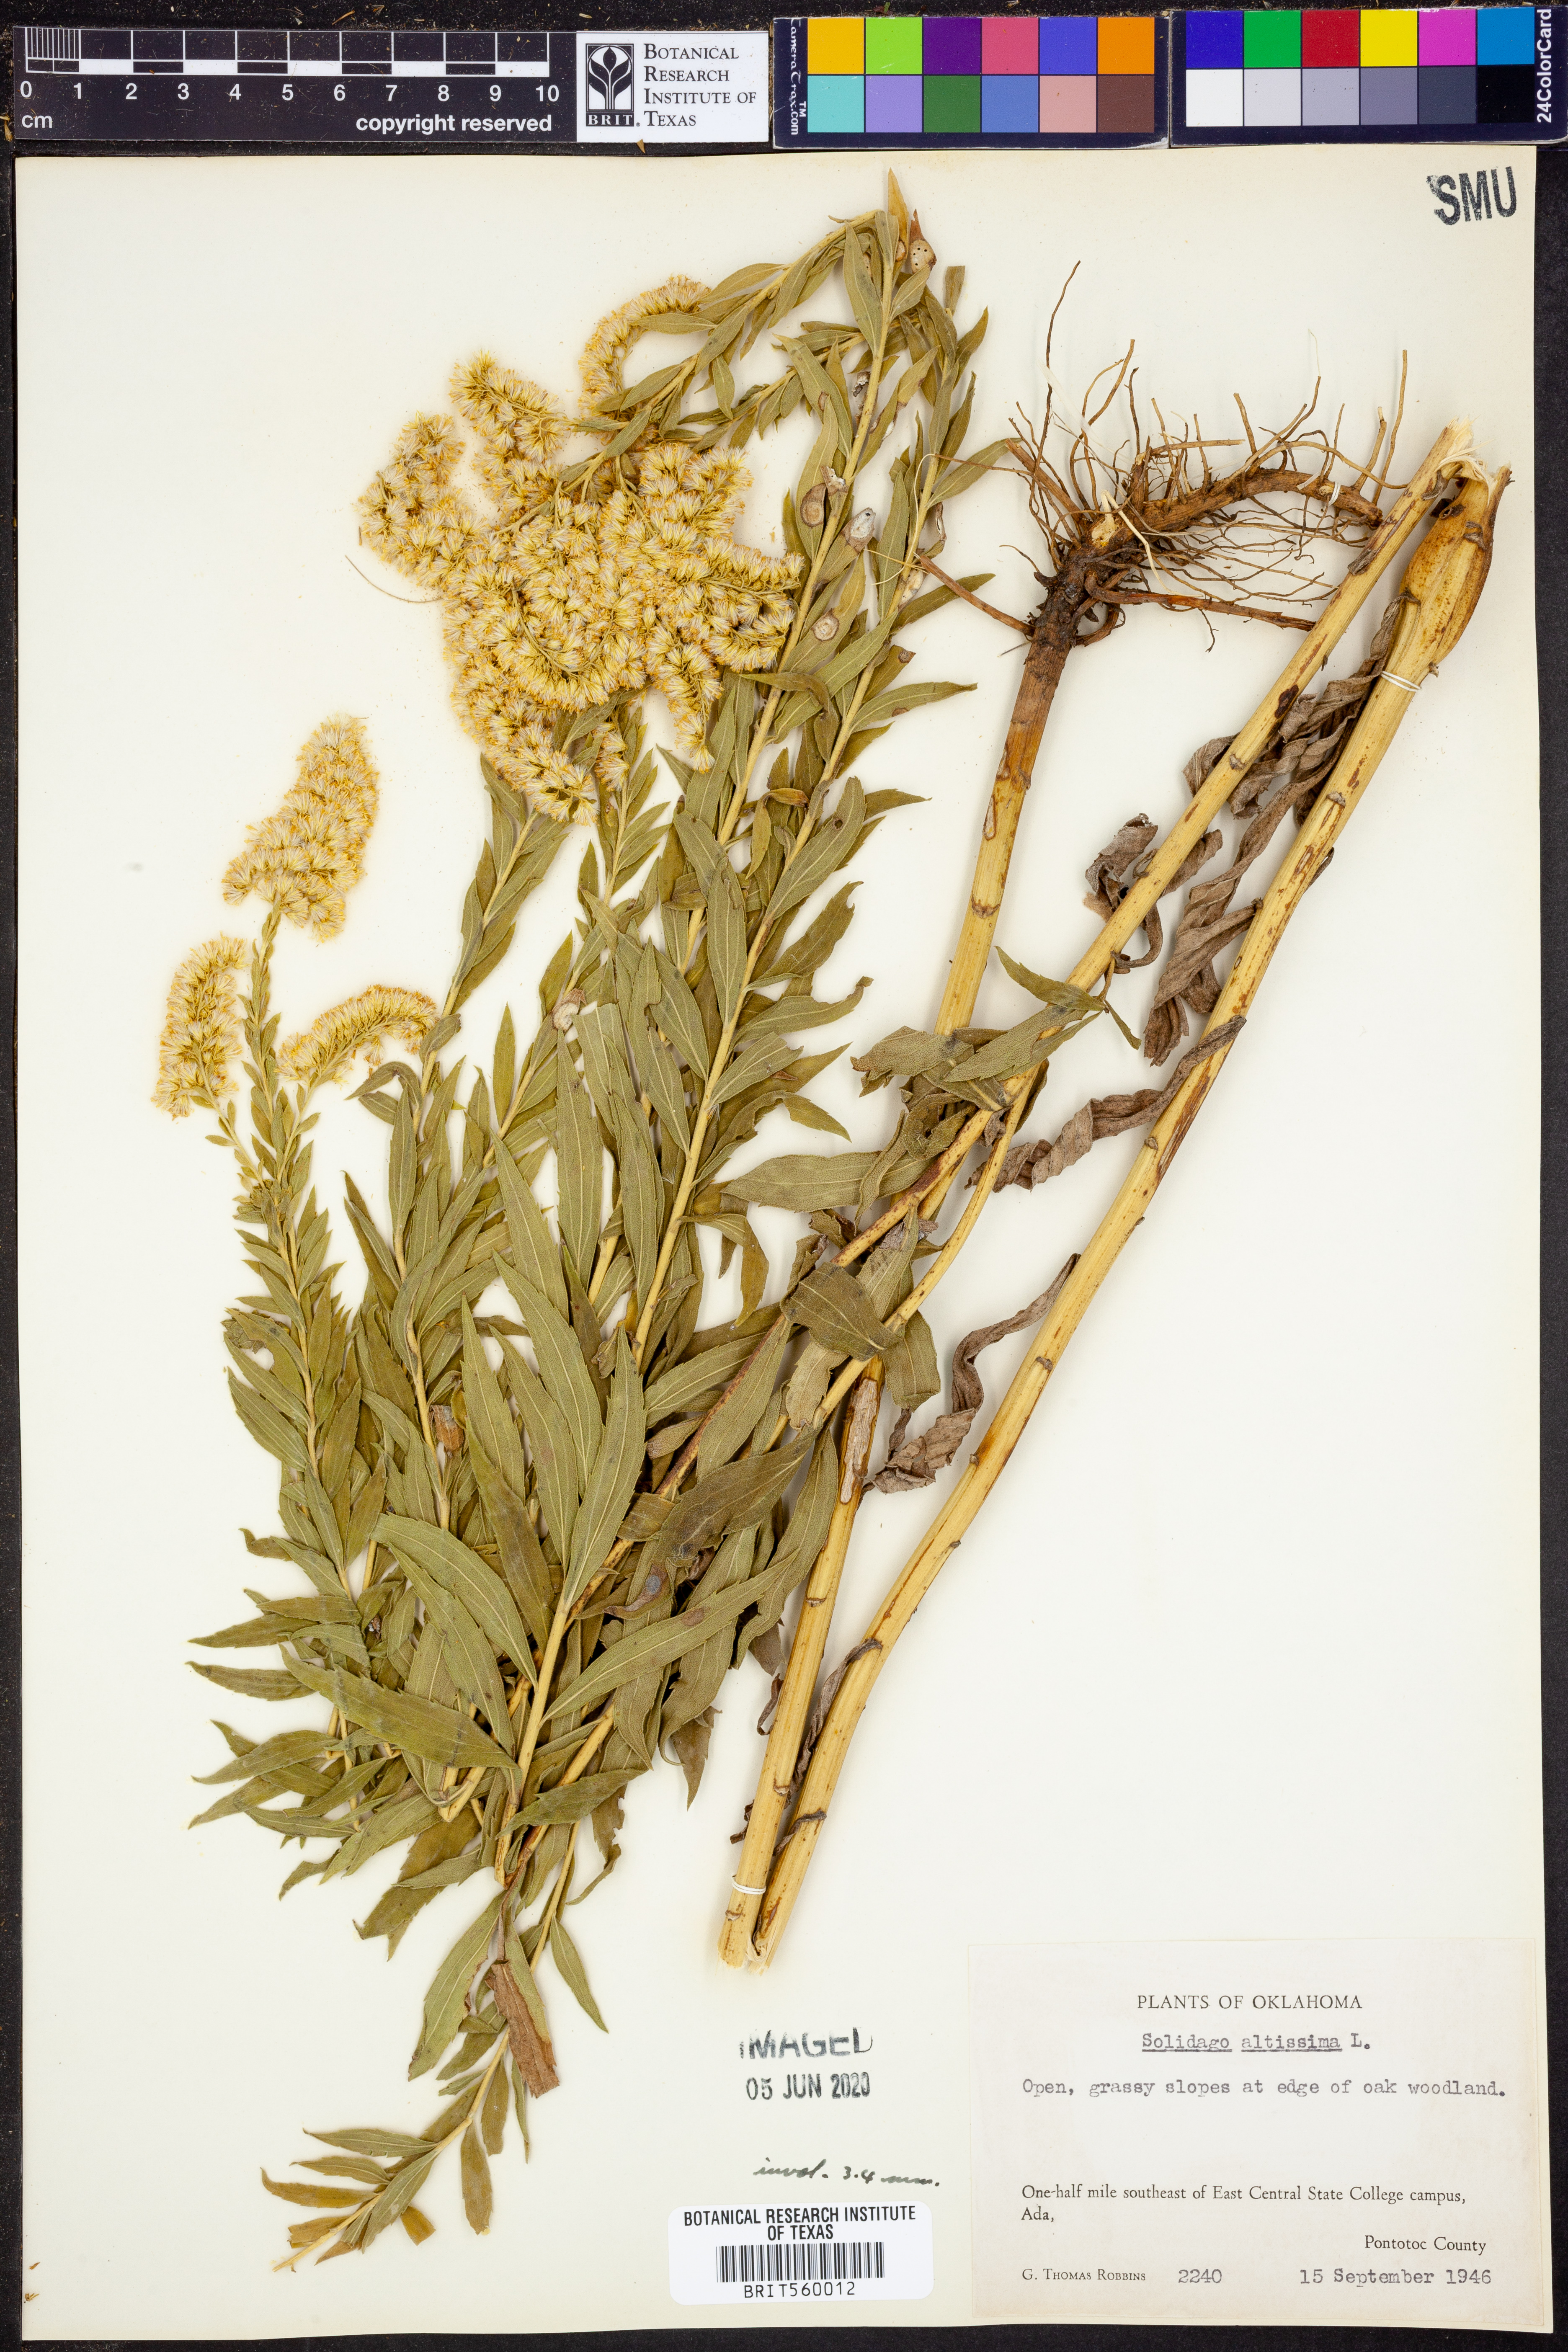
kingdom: Plantae
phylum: Tracheophyta
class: Magnoliopsida
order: Asterales
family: Asteraceae
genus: Solidago
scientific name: Solidago altissima
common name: Late goldenrod
